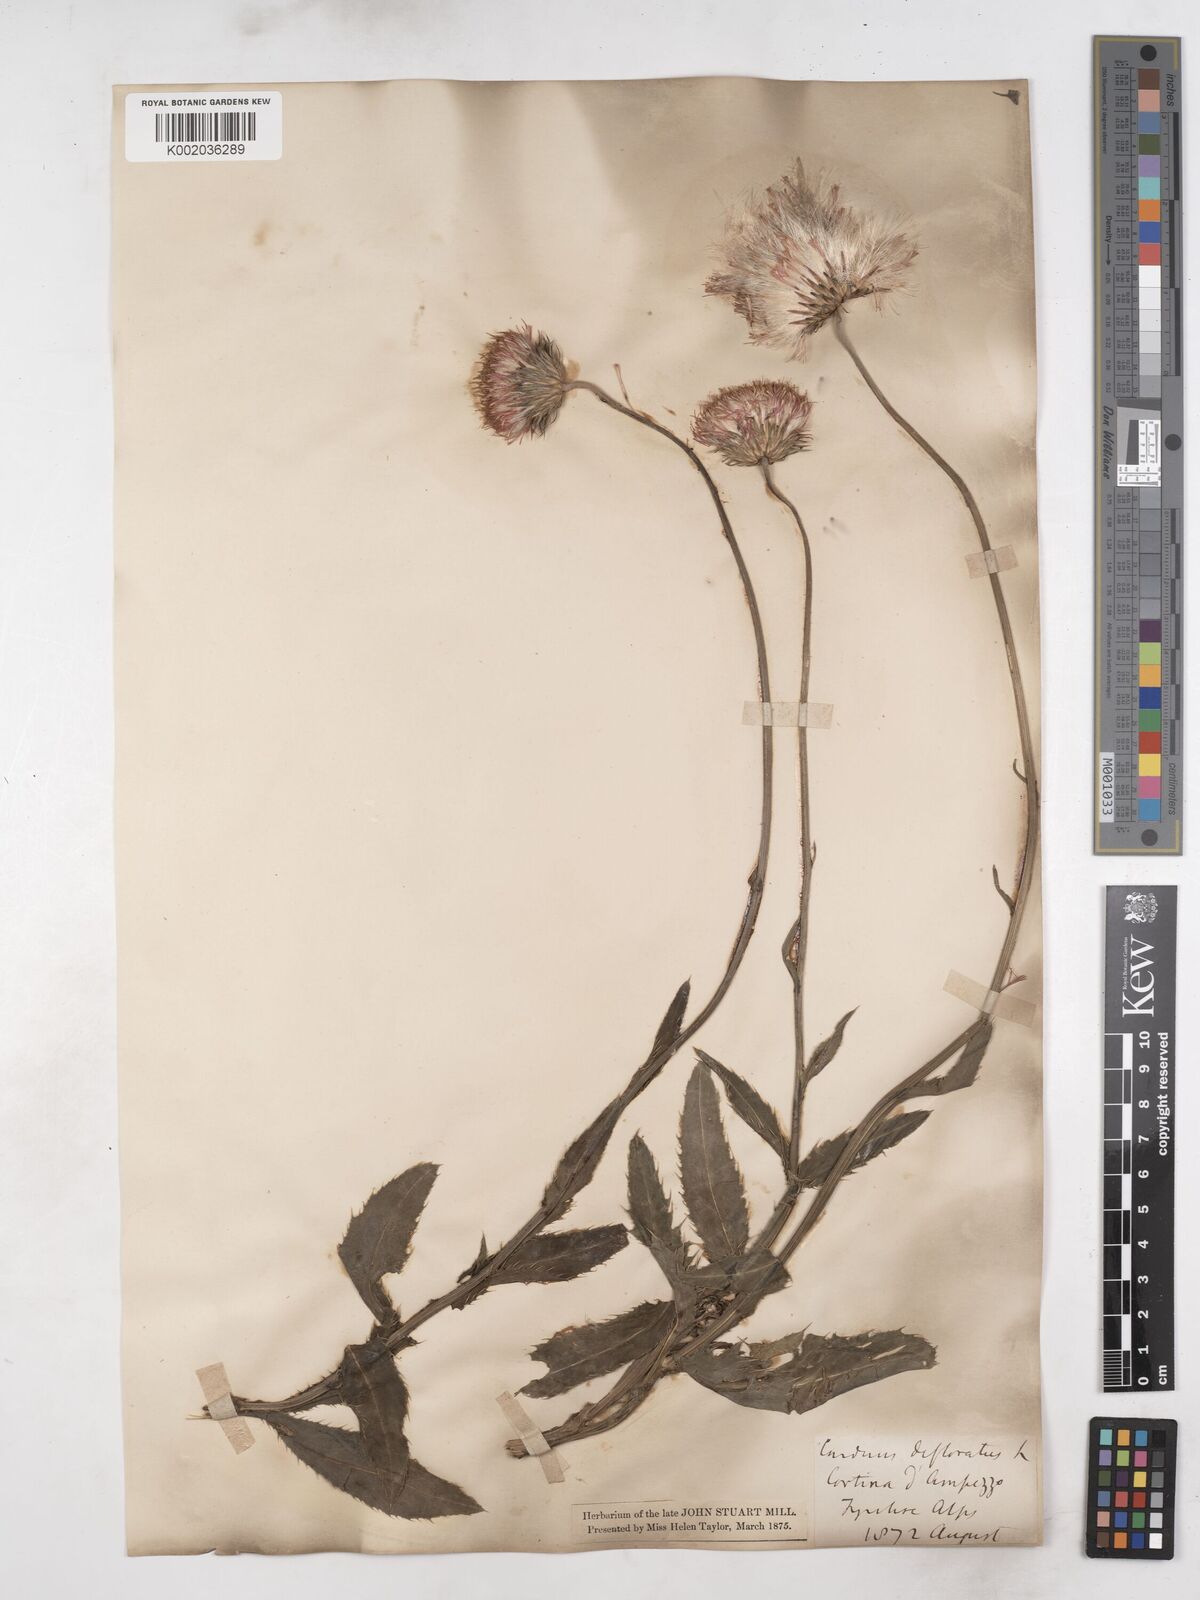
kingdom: Plantae
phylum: Tracheophyta
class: Magnoliopsida
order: Asterales
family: Asteraceae
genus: Carduus
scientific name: Carduus defloratus
